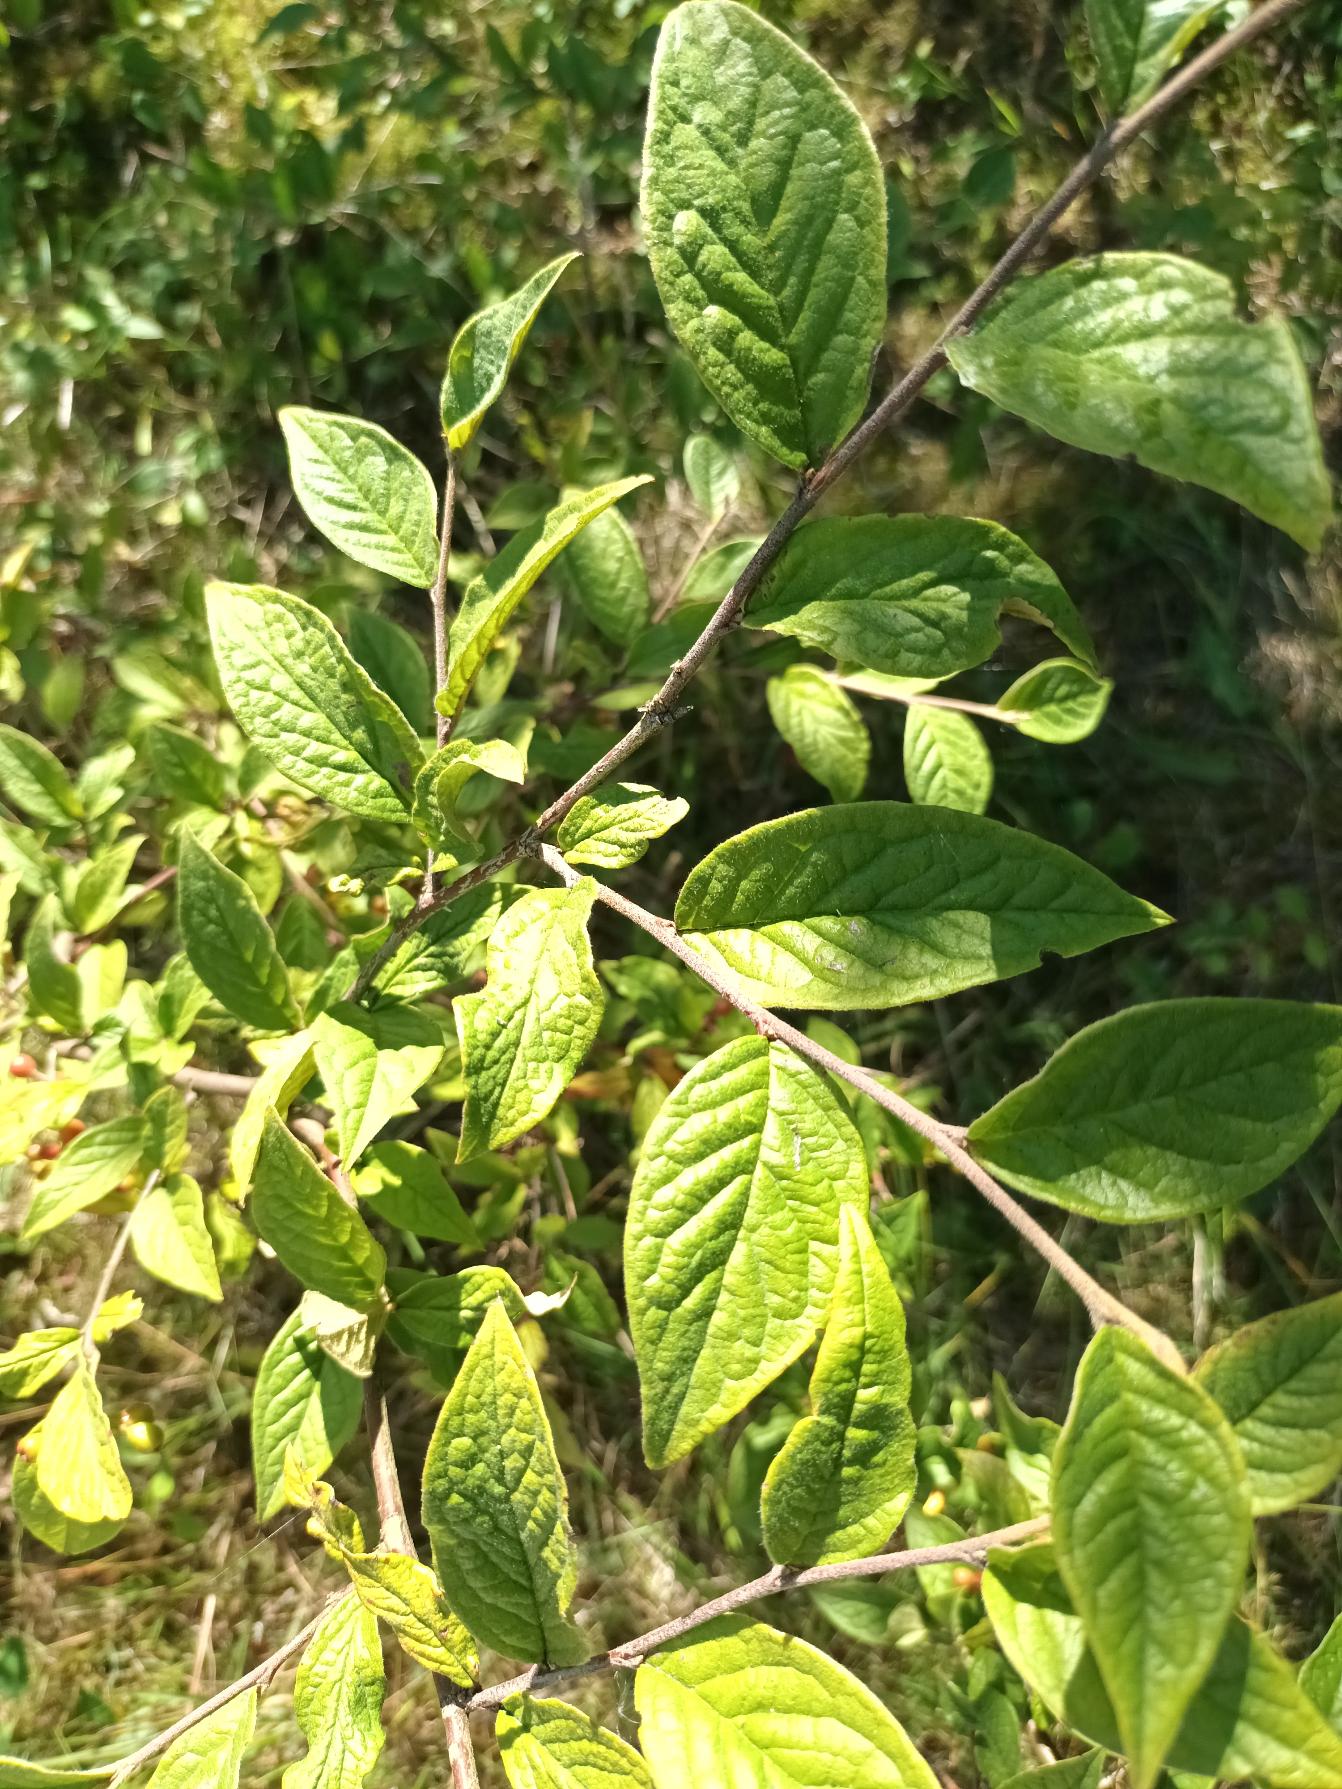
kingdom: Plantae
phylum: Tracheophyta
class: Magnoliopsida
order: Rosales
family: Rosaceae
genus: Cotoneaster
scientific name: Cotoneaster bullatus
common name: Buklet dværgmispel
